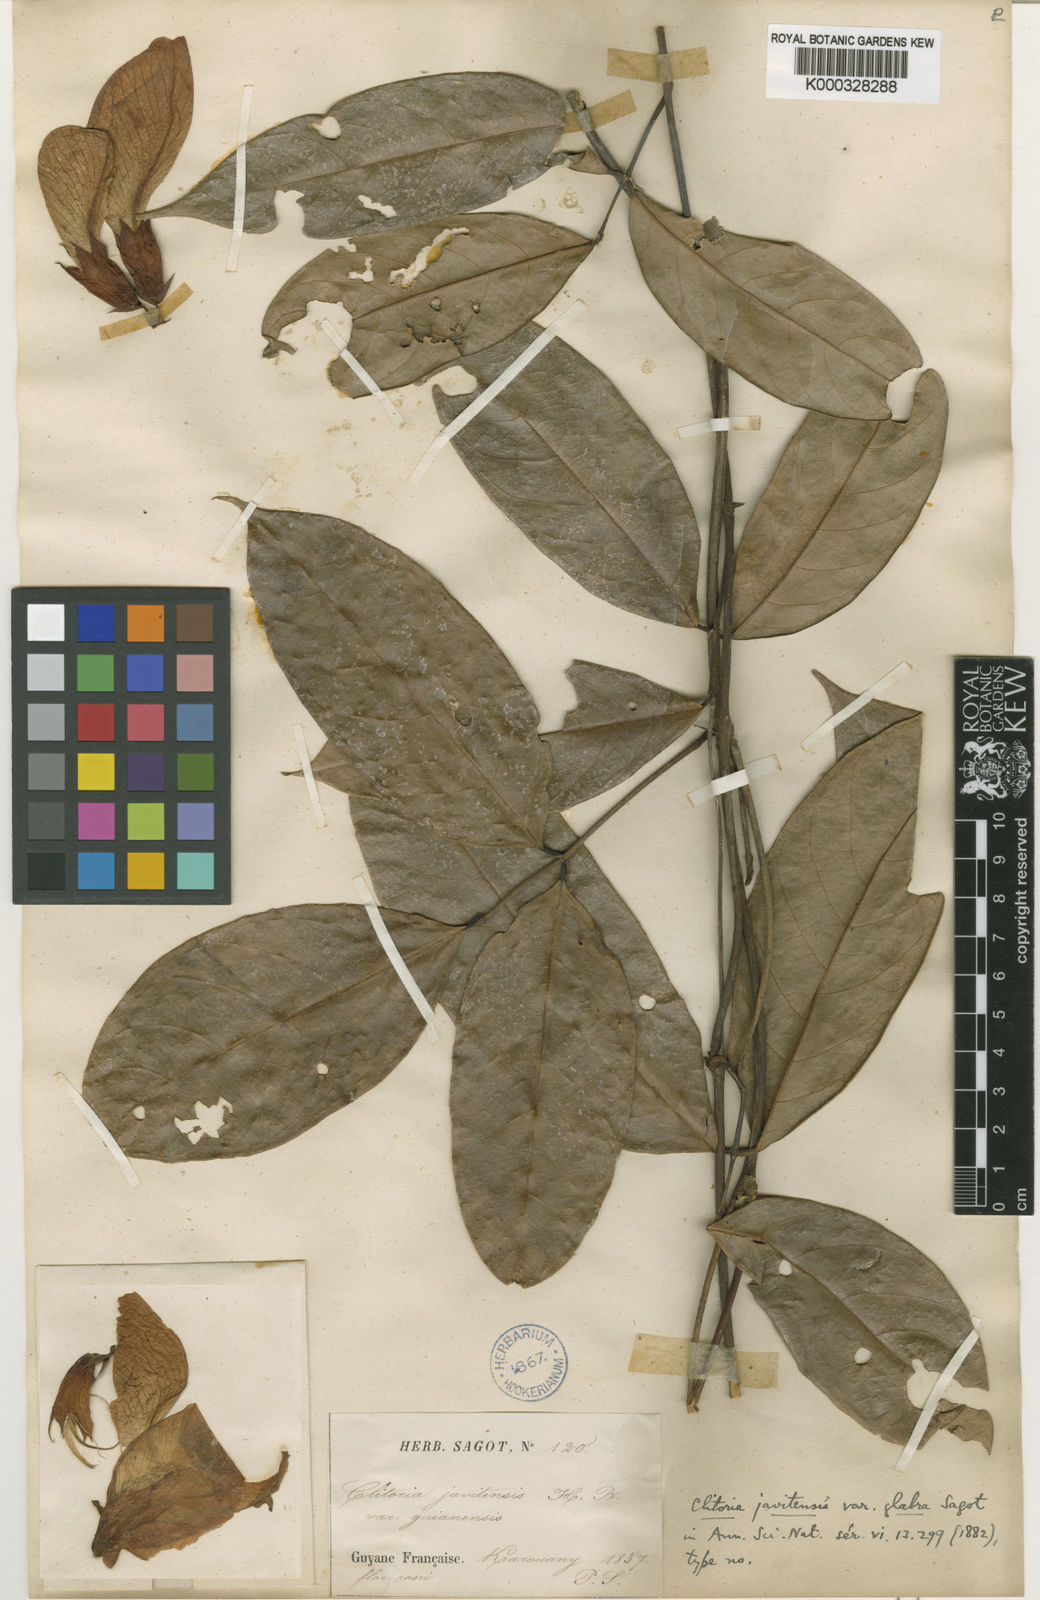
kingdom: Plantae
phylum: Tracheophyta
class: Magnoliopsida
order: Fabales
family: Fabaceae
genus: Clitoria
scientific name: Clitoria sagotii
